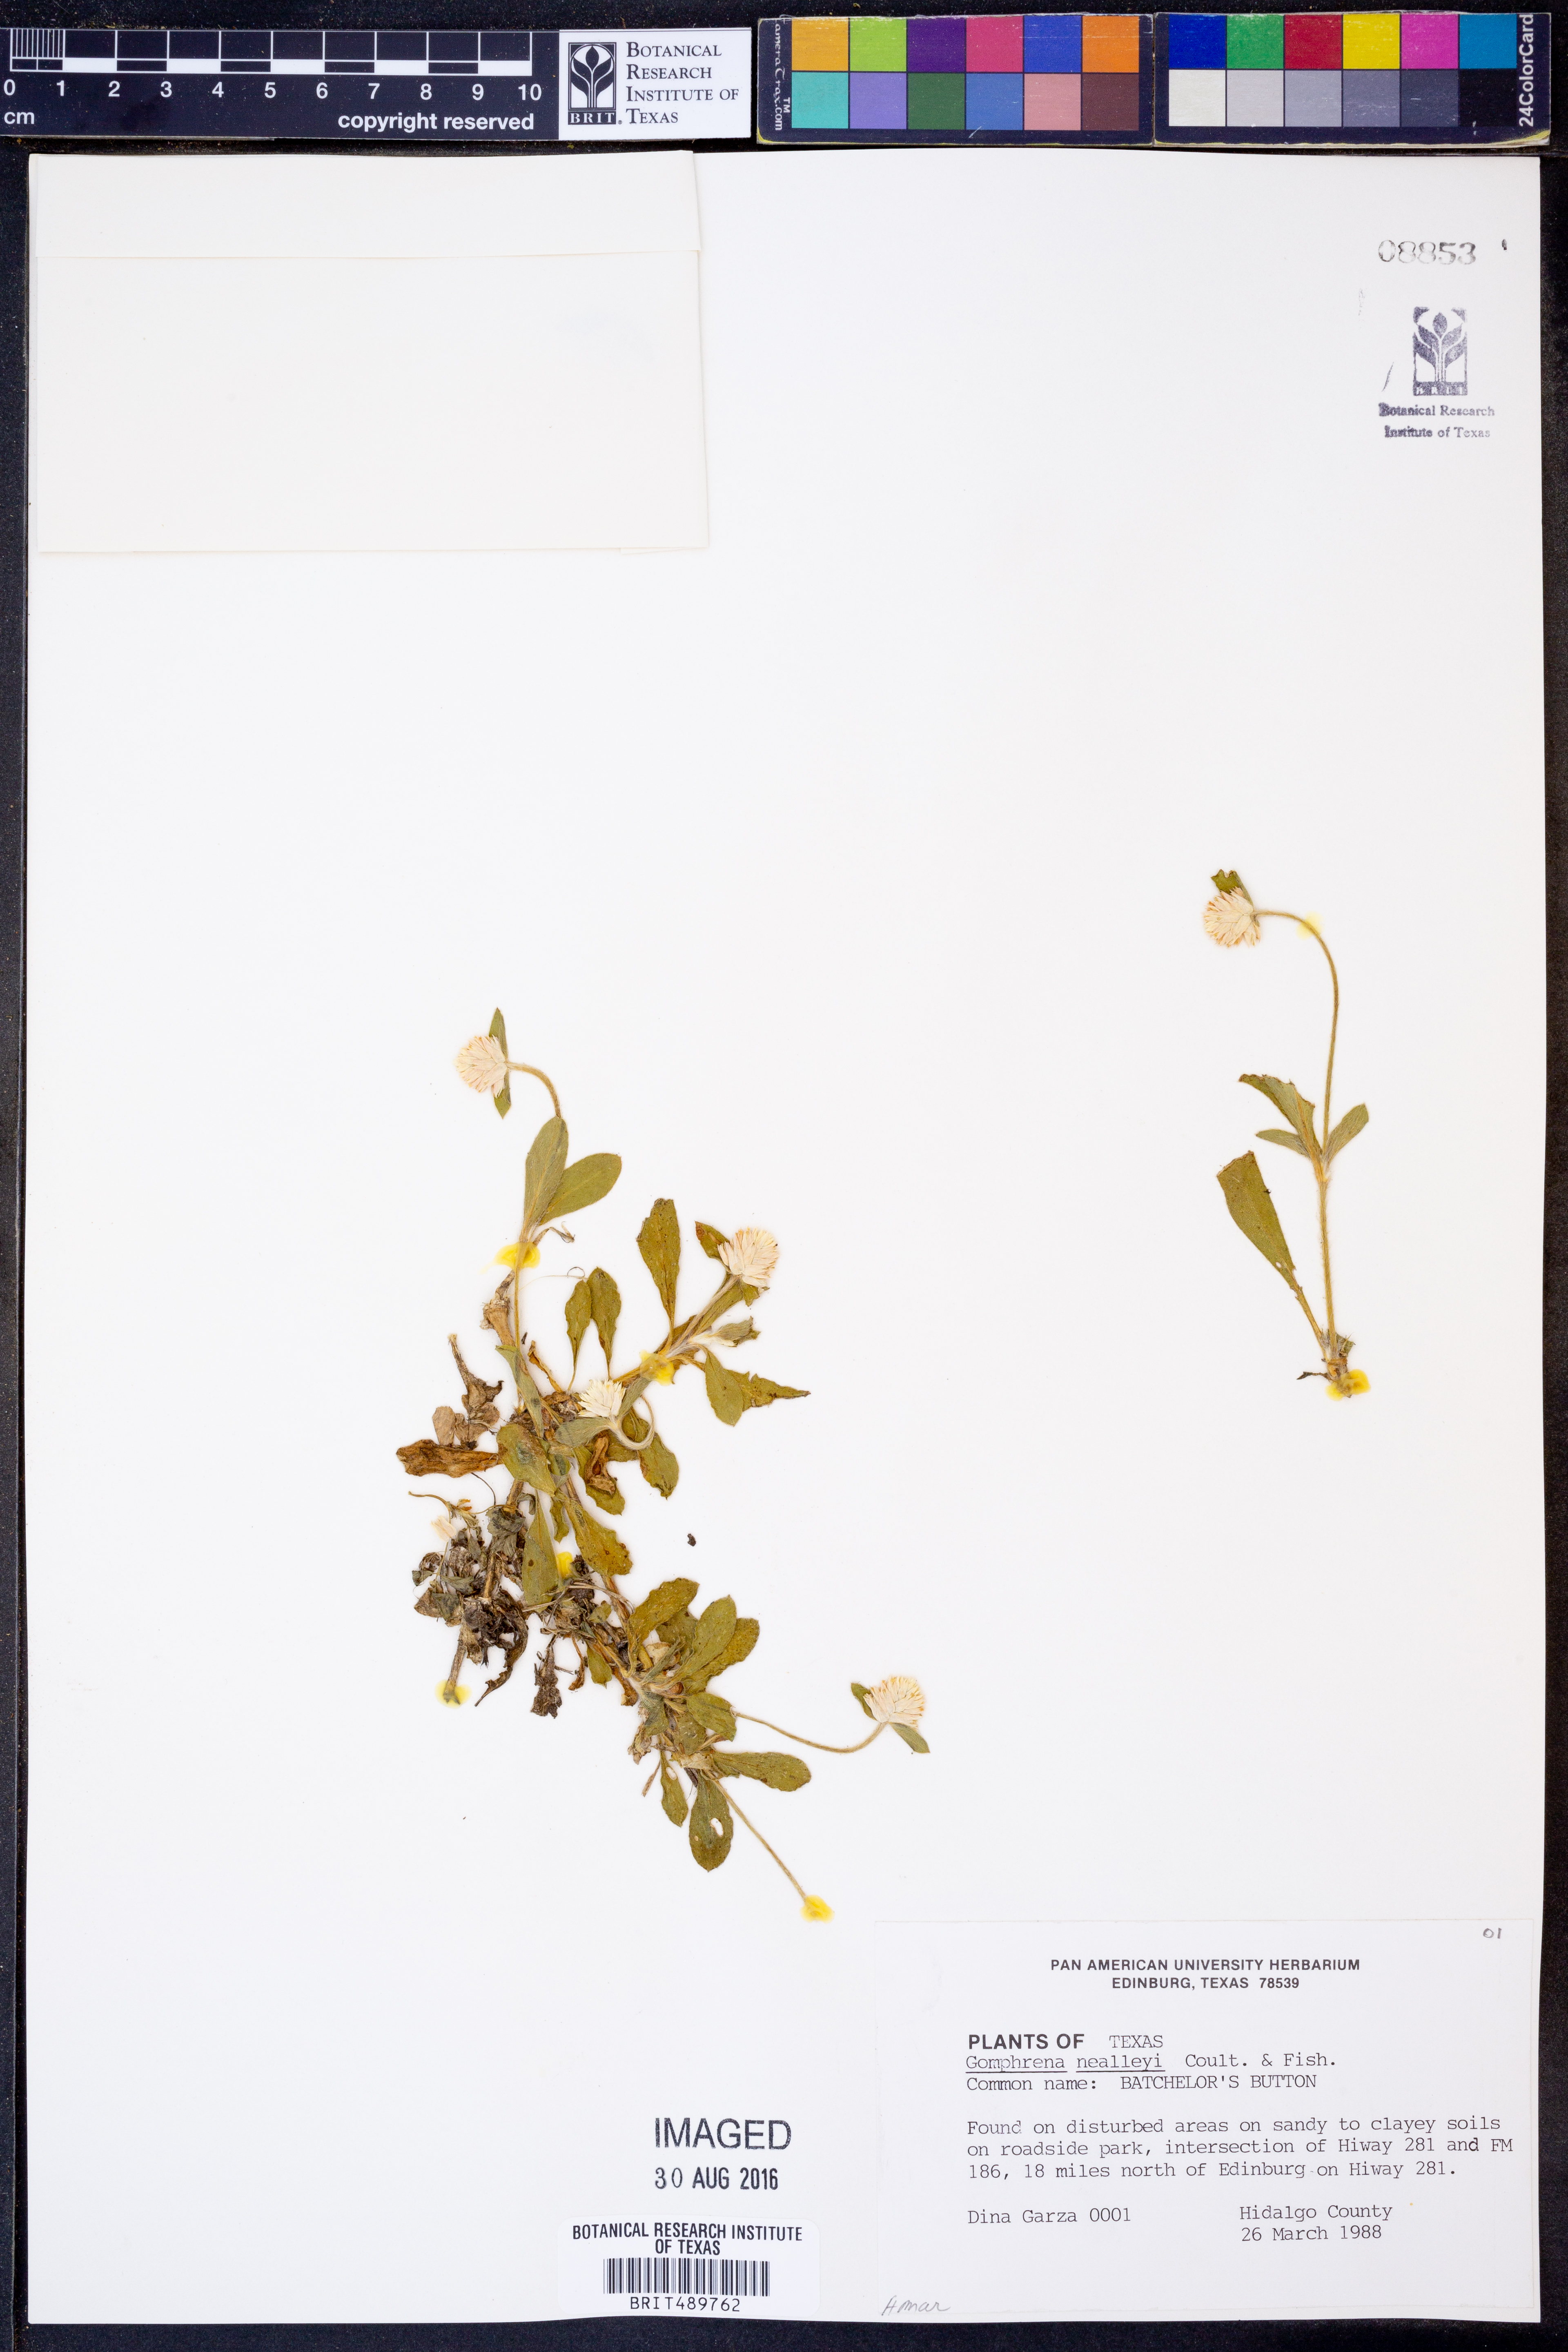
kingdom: Plantae
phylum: Tracheophyta
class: Magnoliopsida
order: Caryophyllales
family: Amaranthaceae
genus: Gomphrena
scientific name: Gomphrena nealleyi
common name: Nealley's globe-amaranth
